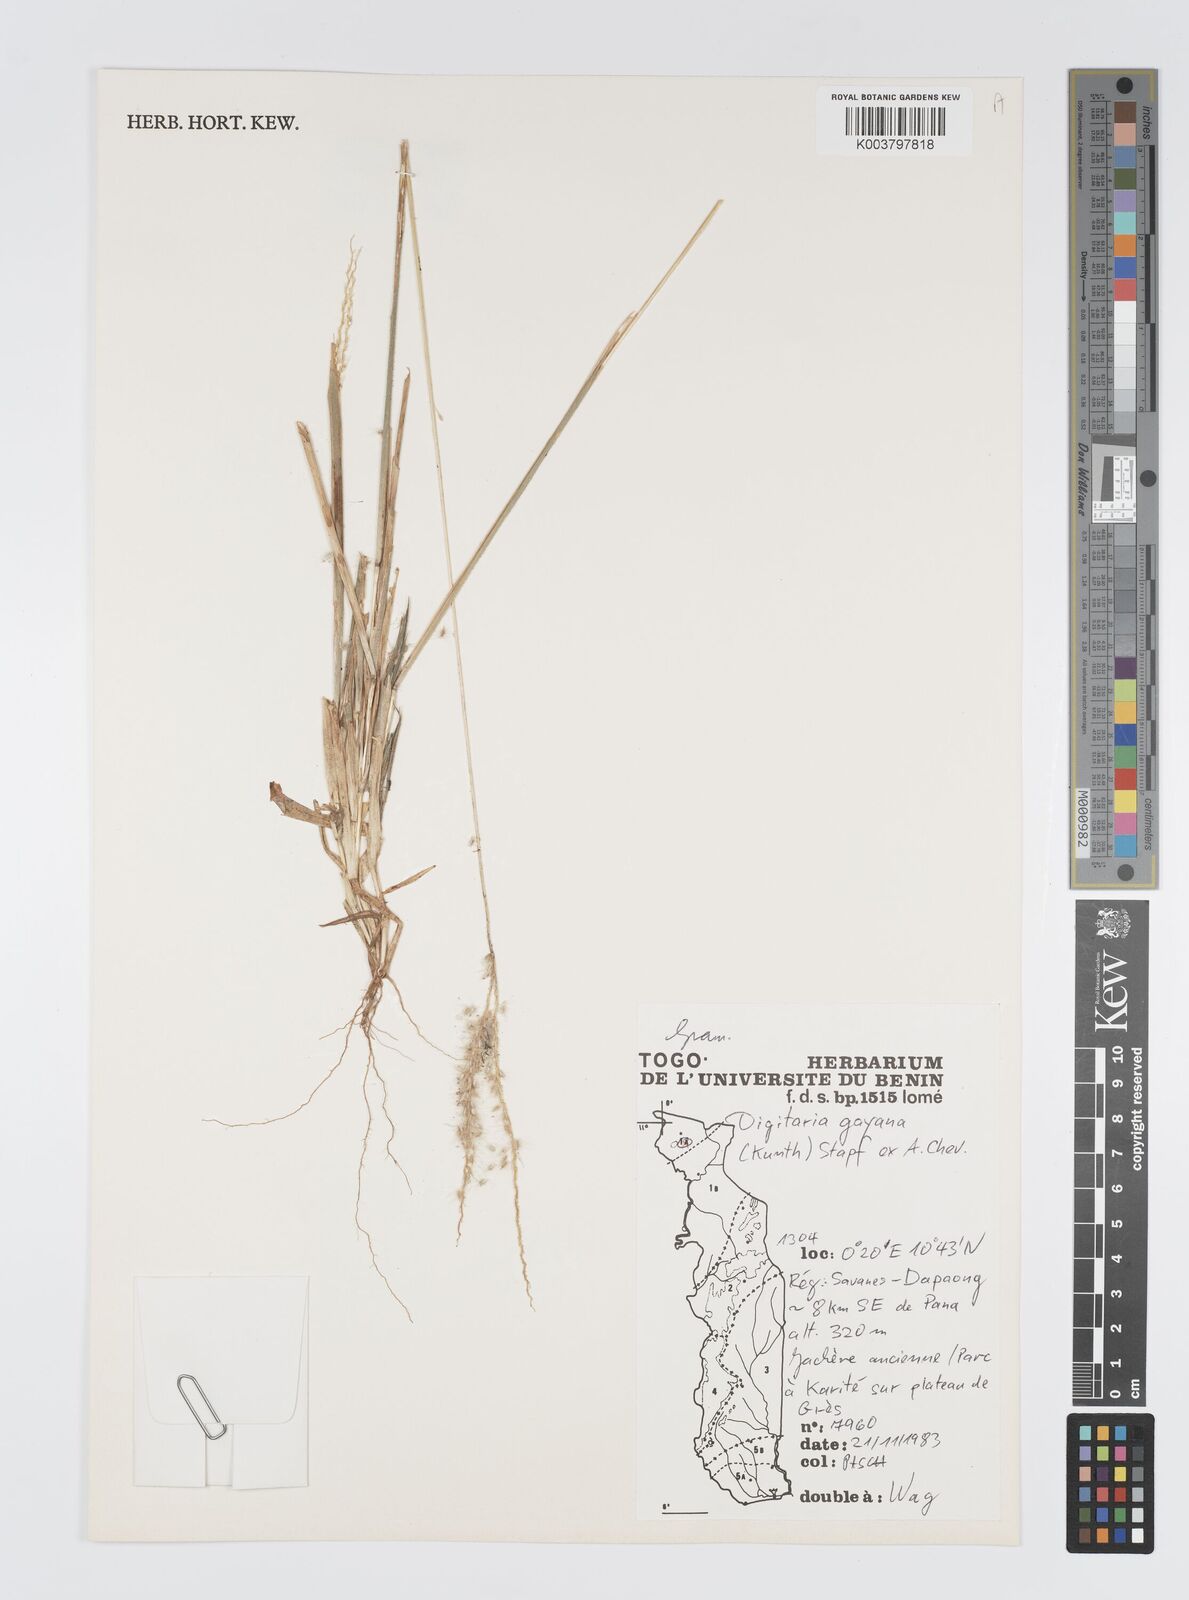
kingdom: Plantae
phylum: Tracheophyta
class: Liliopsida
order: Poales
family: Poaceae
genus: Digitaria
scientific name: Digitaria gayana
